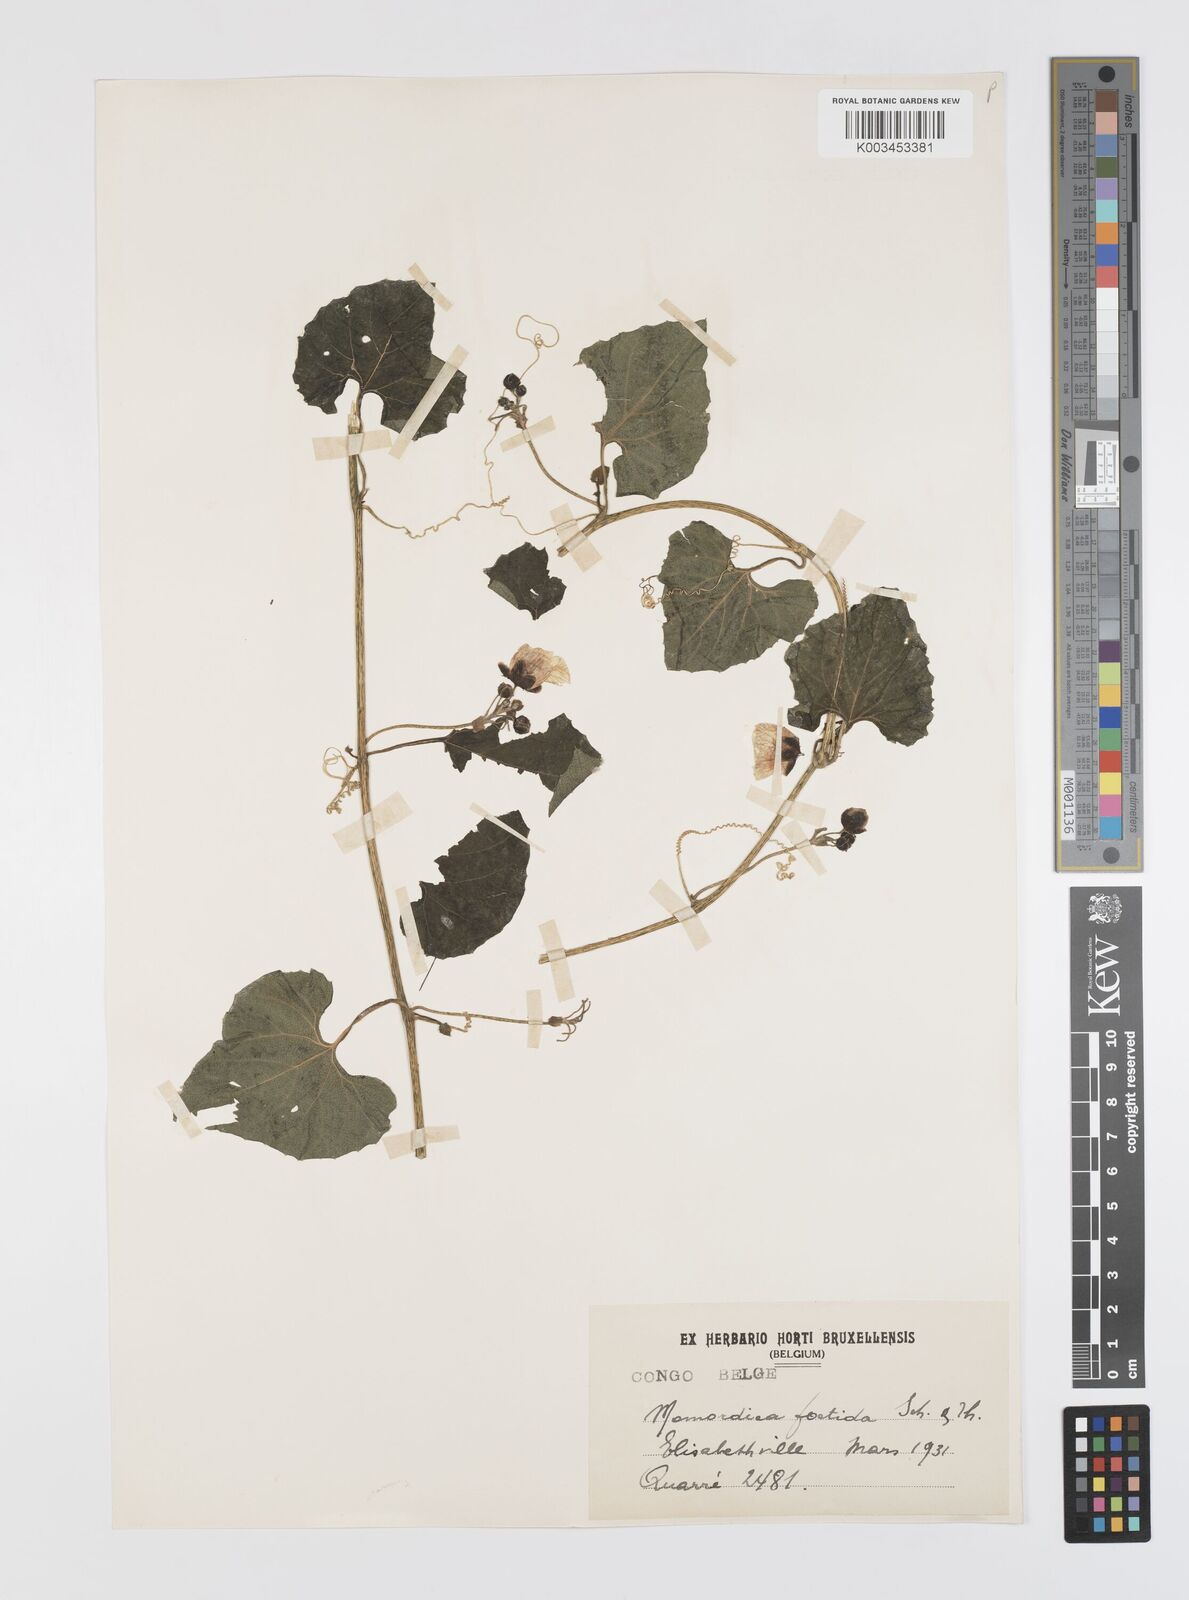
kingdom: Plantae
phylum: Tracheophyta
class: Magnoliopsida
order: Cucurbitales
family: Cucurbitaceae
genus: Momordica
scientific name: Momordica foetida
